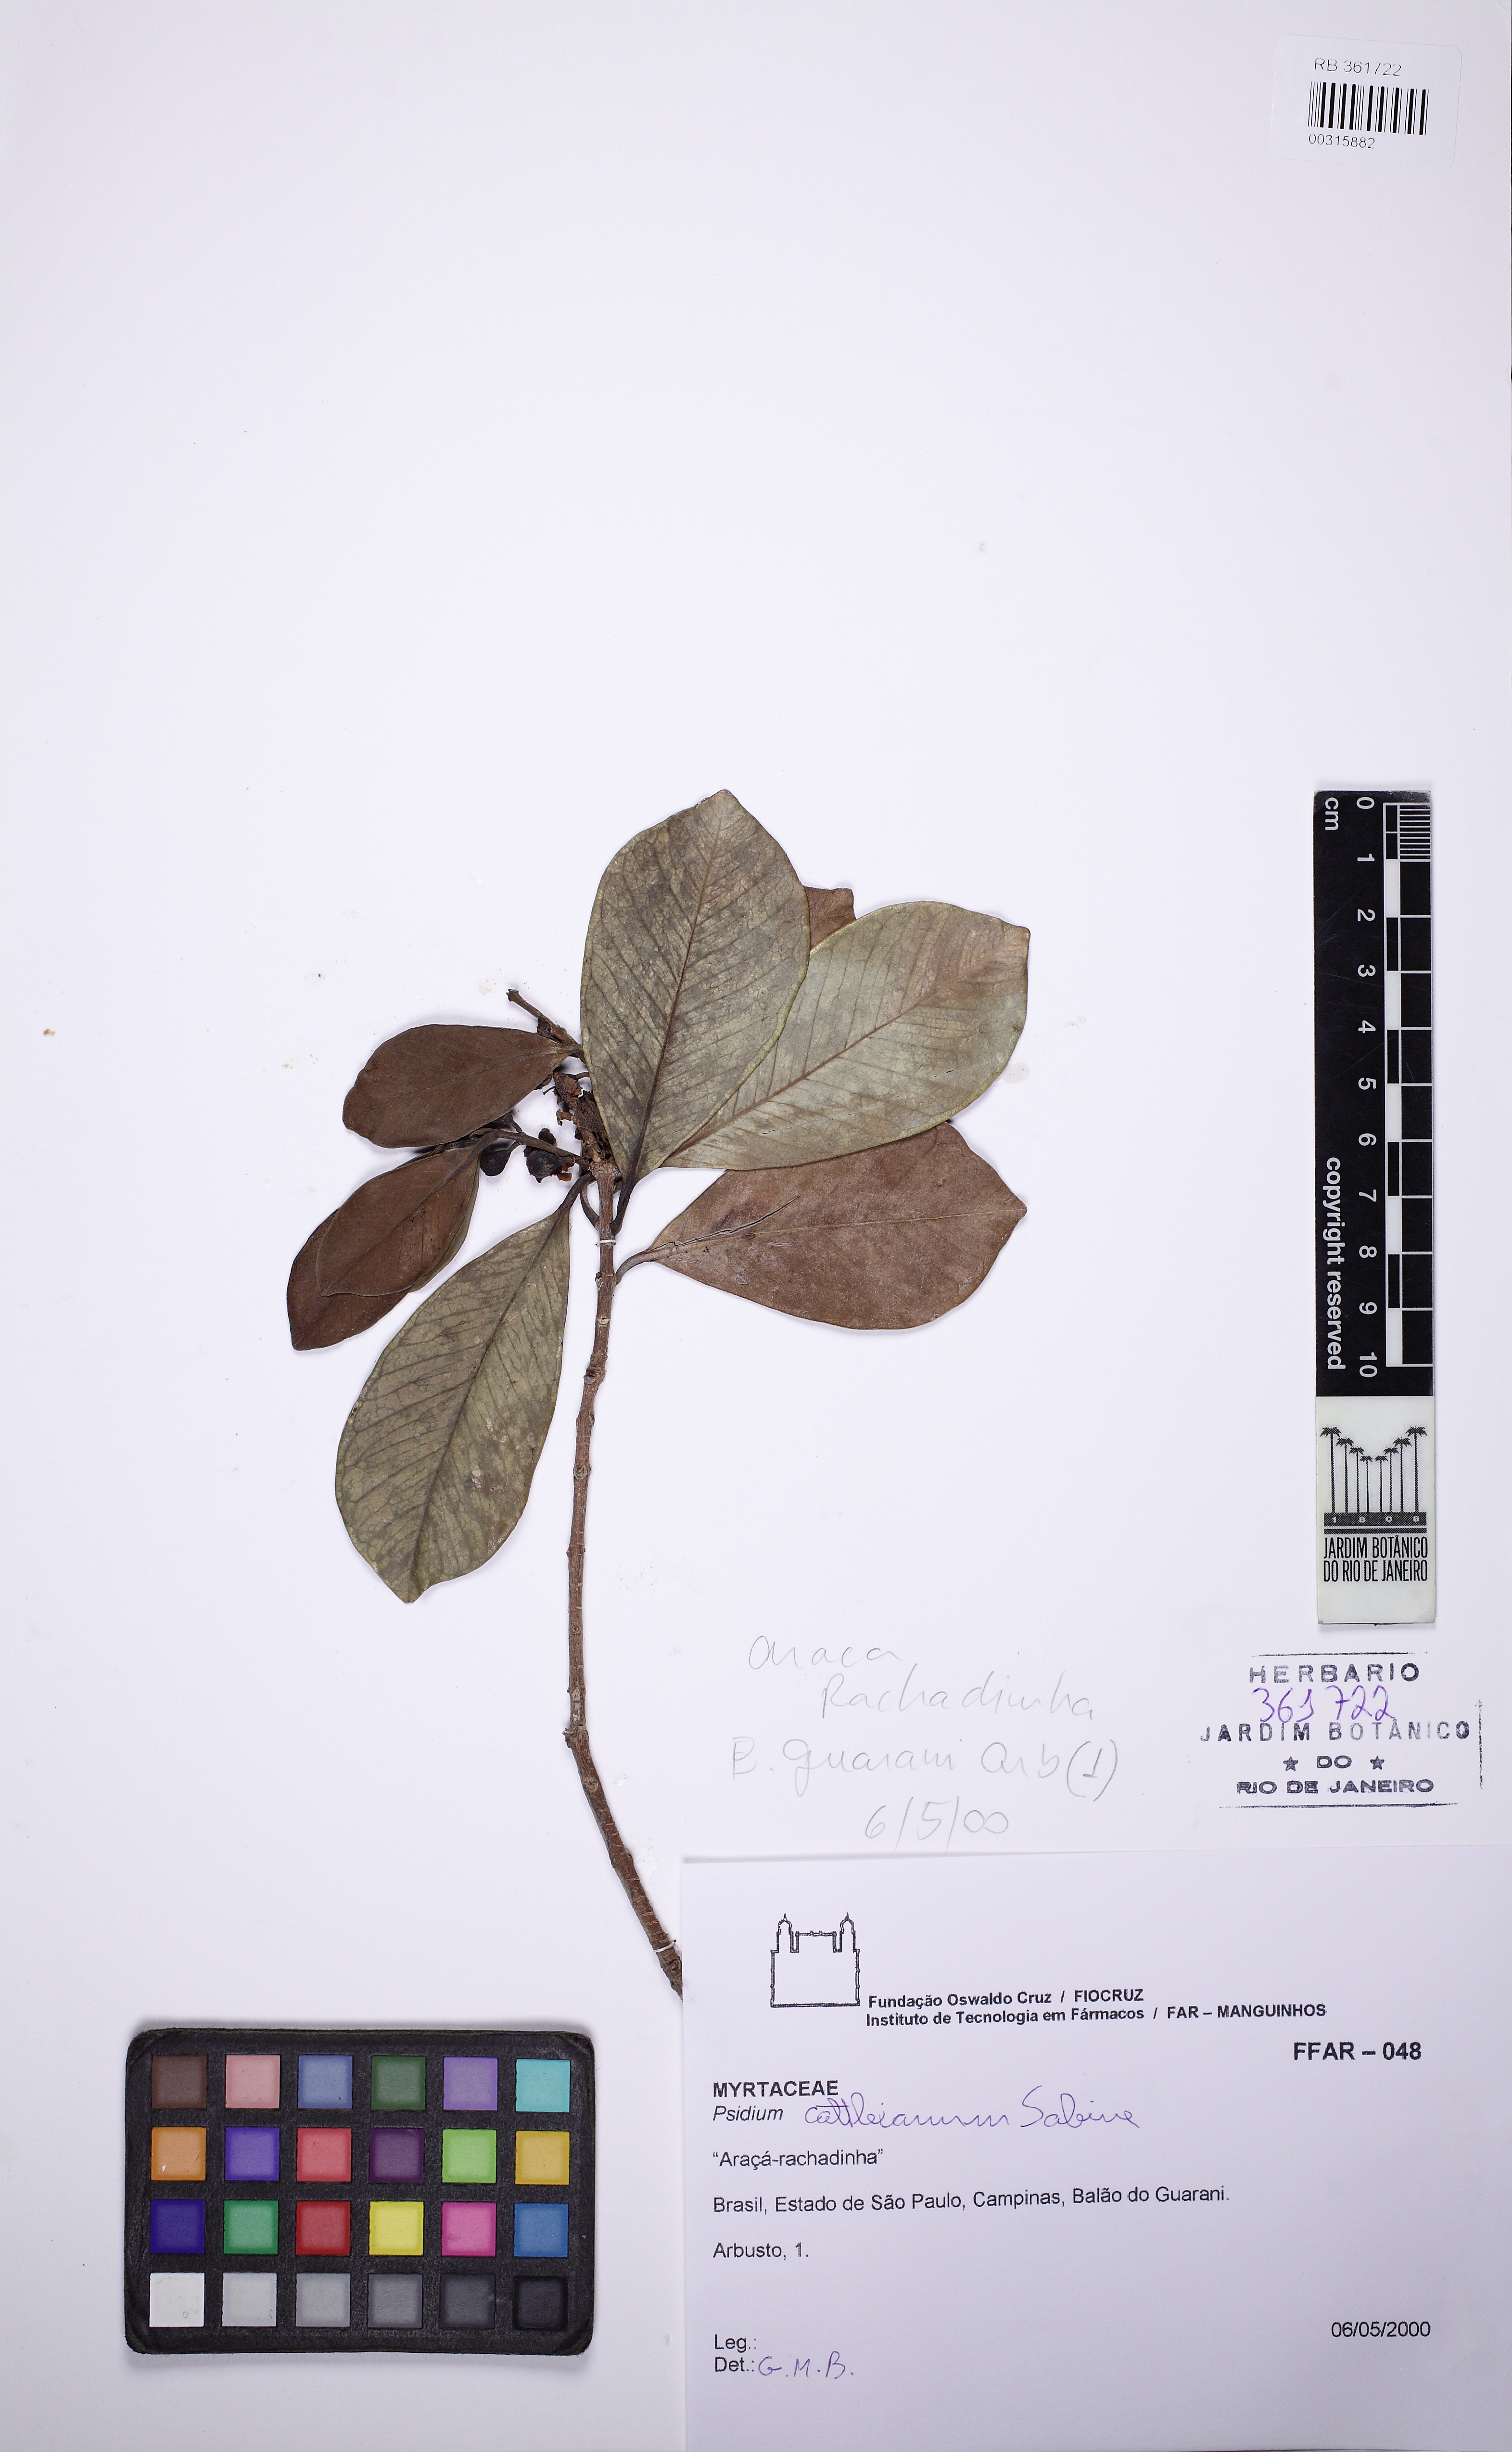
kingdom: Plantae
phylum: Tracheophyta
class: Magnoliopsida
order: Myrtales
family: Myrtaceae
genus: Psidium
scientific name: Psidium cattleianum
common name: Strawberry guava
